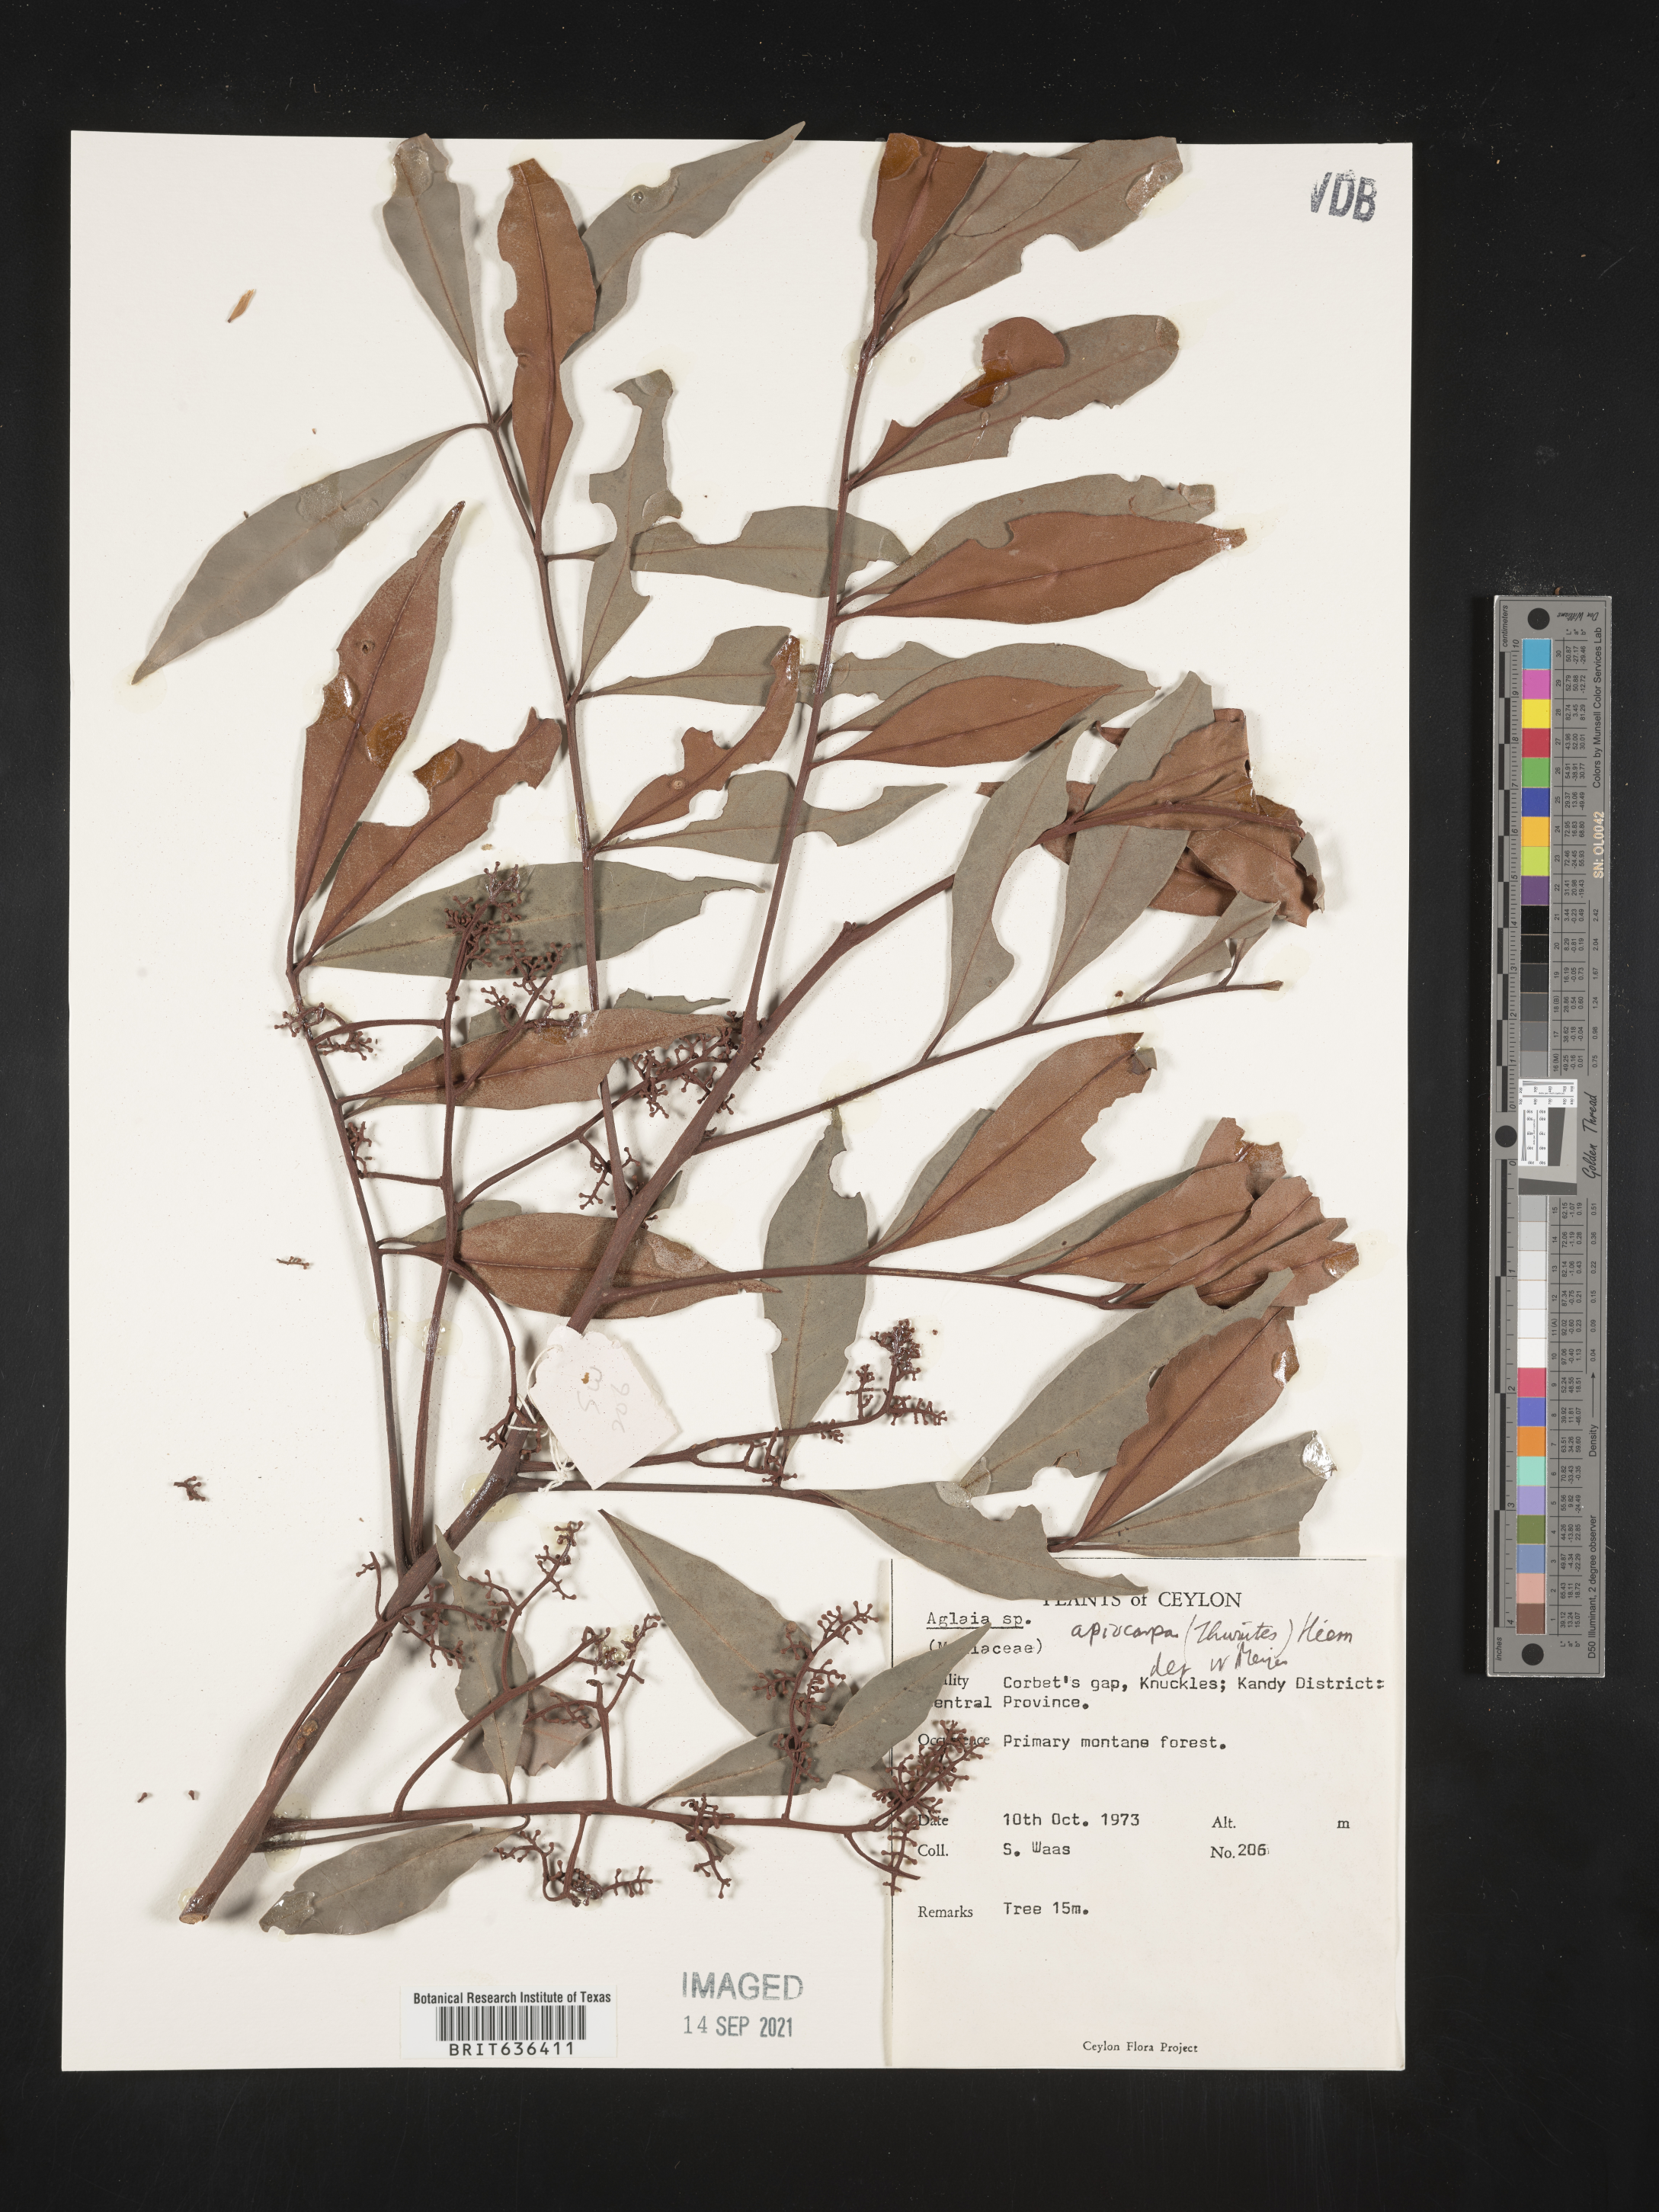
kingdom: Plantae
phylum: Tracheophyta
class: Magnoliopsida
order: Sapindales
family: Meliaceae
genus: Aglaia
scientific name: Aglaia
